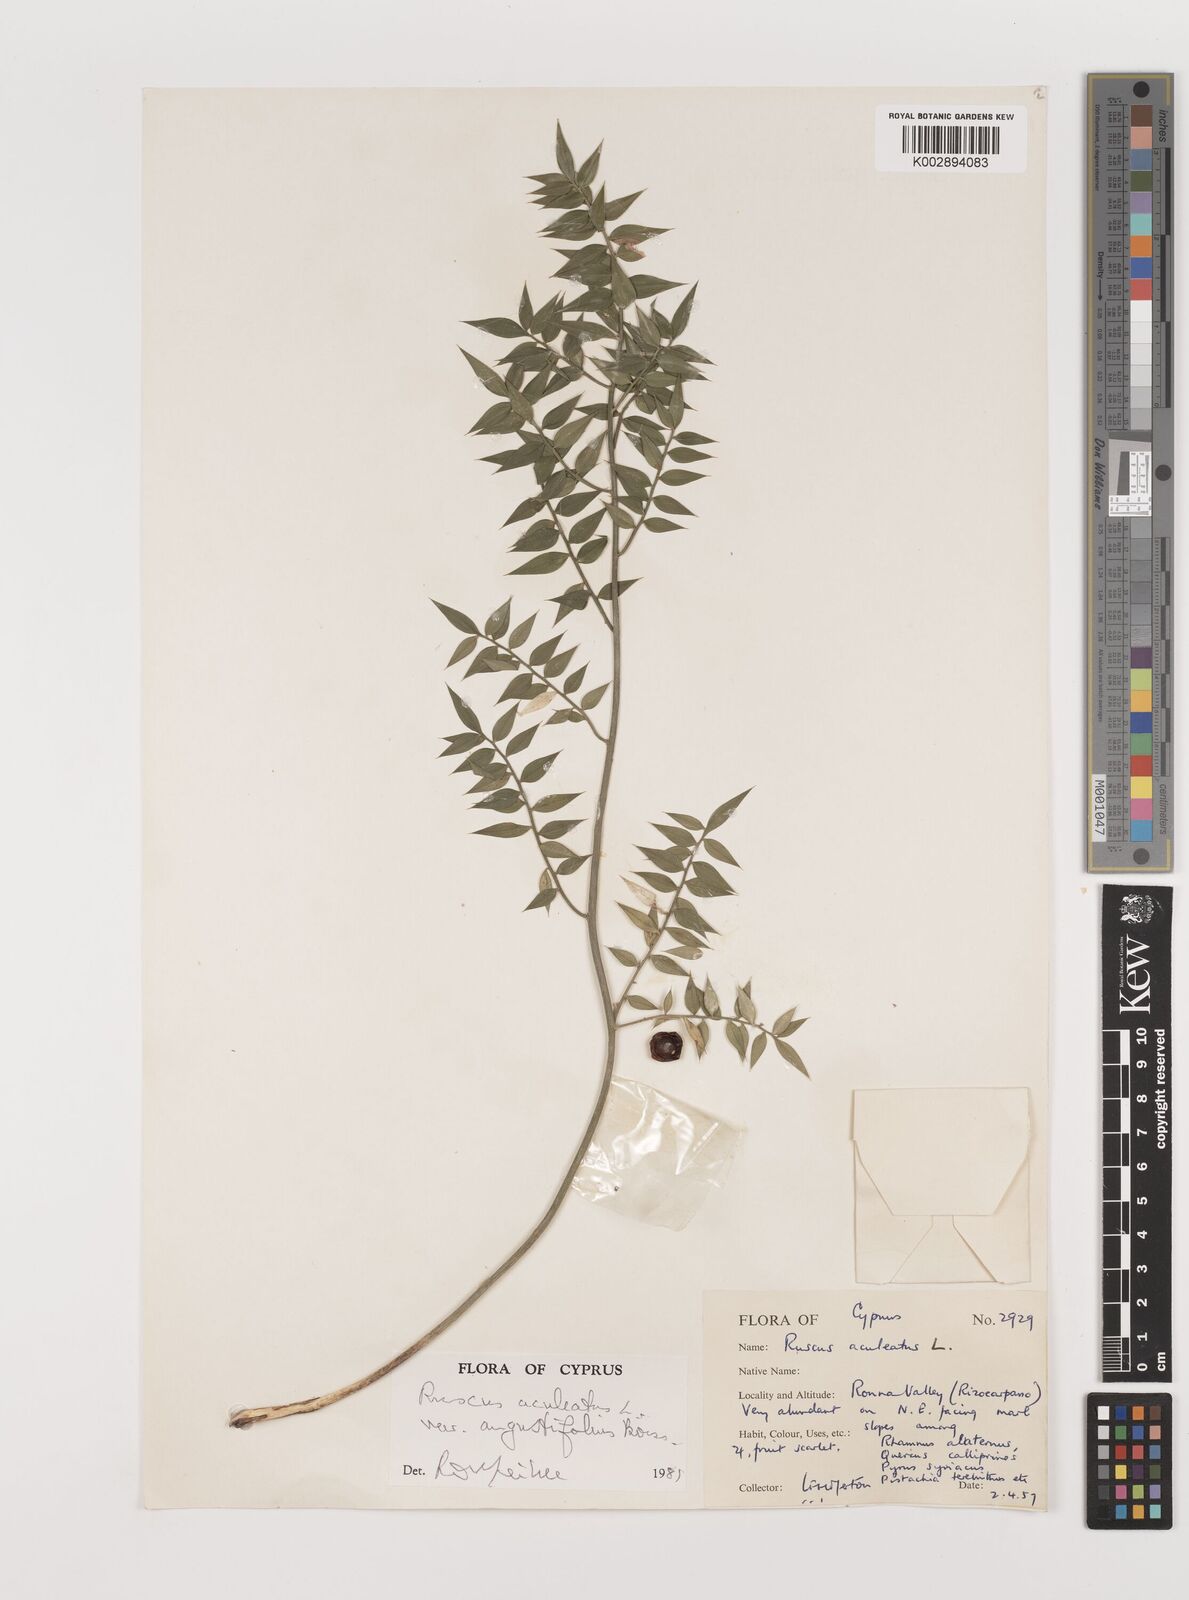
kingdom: Plantae
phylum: Tracheophyta
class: Liliopsida
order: Asparagales
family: Asparagaceae
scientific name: Asparagaceae
